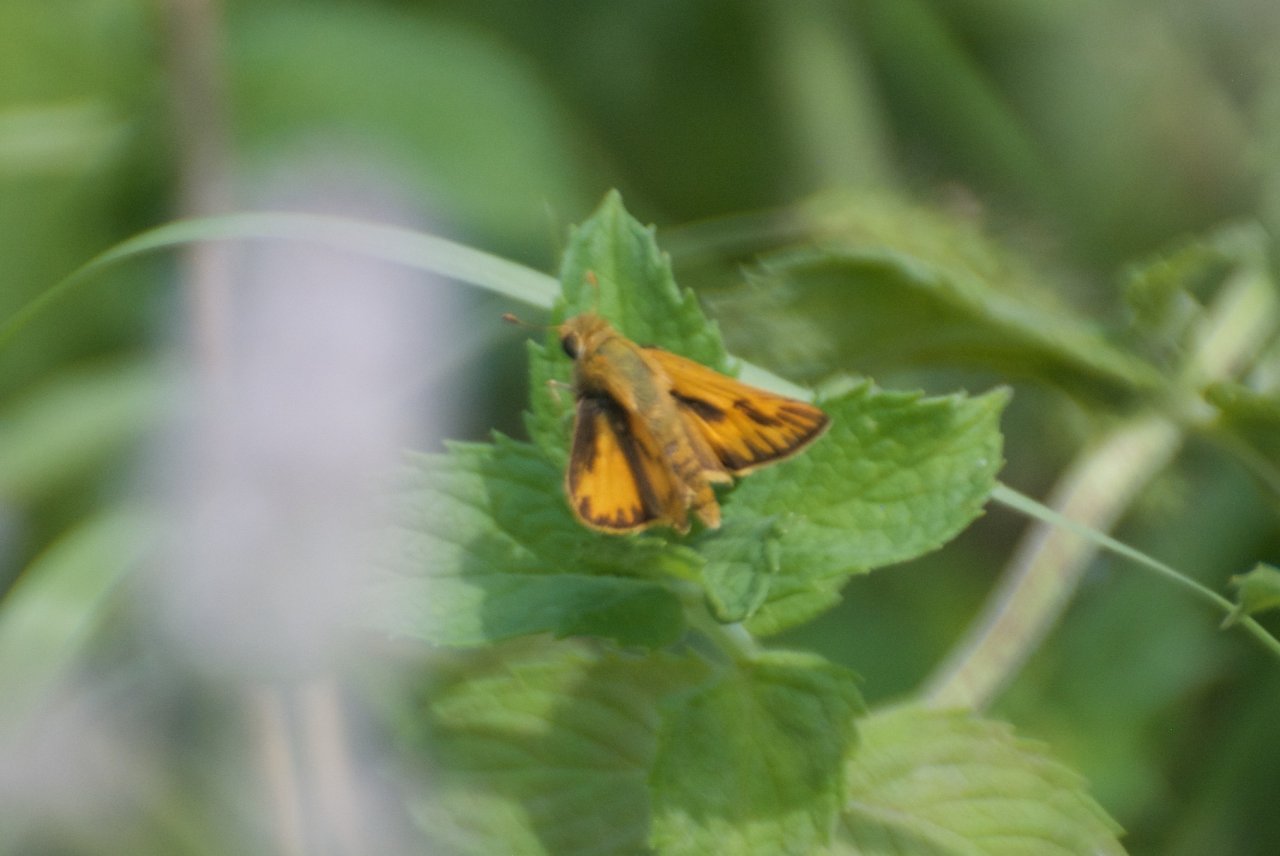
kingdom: Animalia
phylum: Arthropoda
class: Insecta
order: Lepidoptera
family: Hesperiidae
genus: Hylephila
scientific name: Hylephila phyleus
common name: Fiery Skipper
